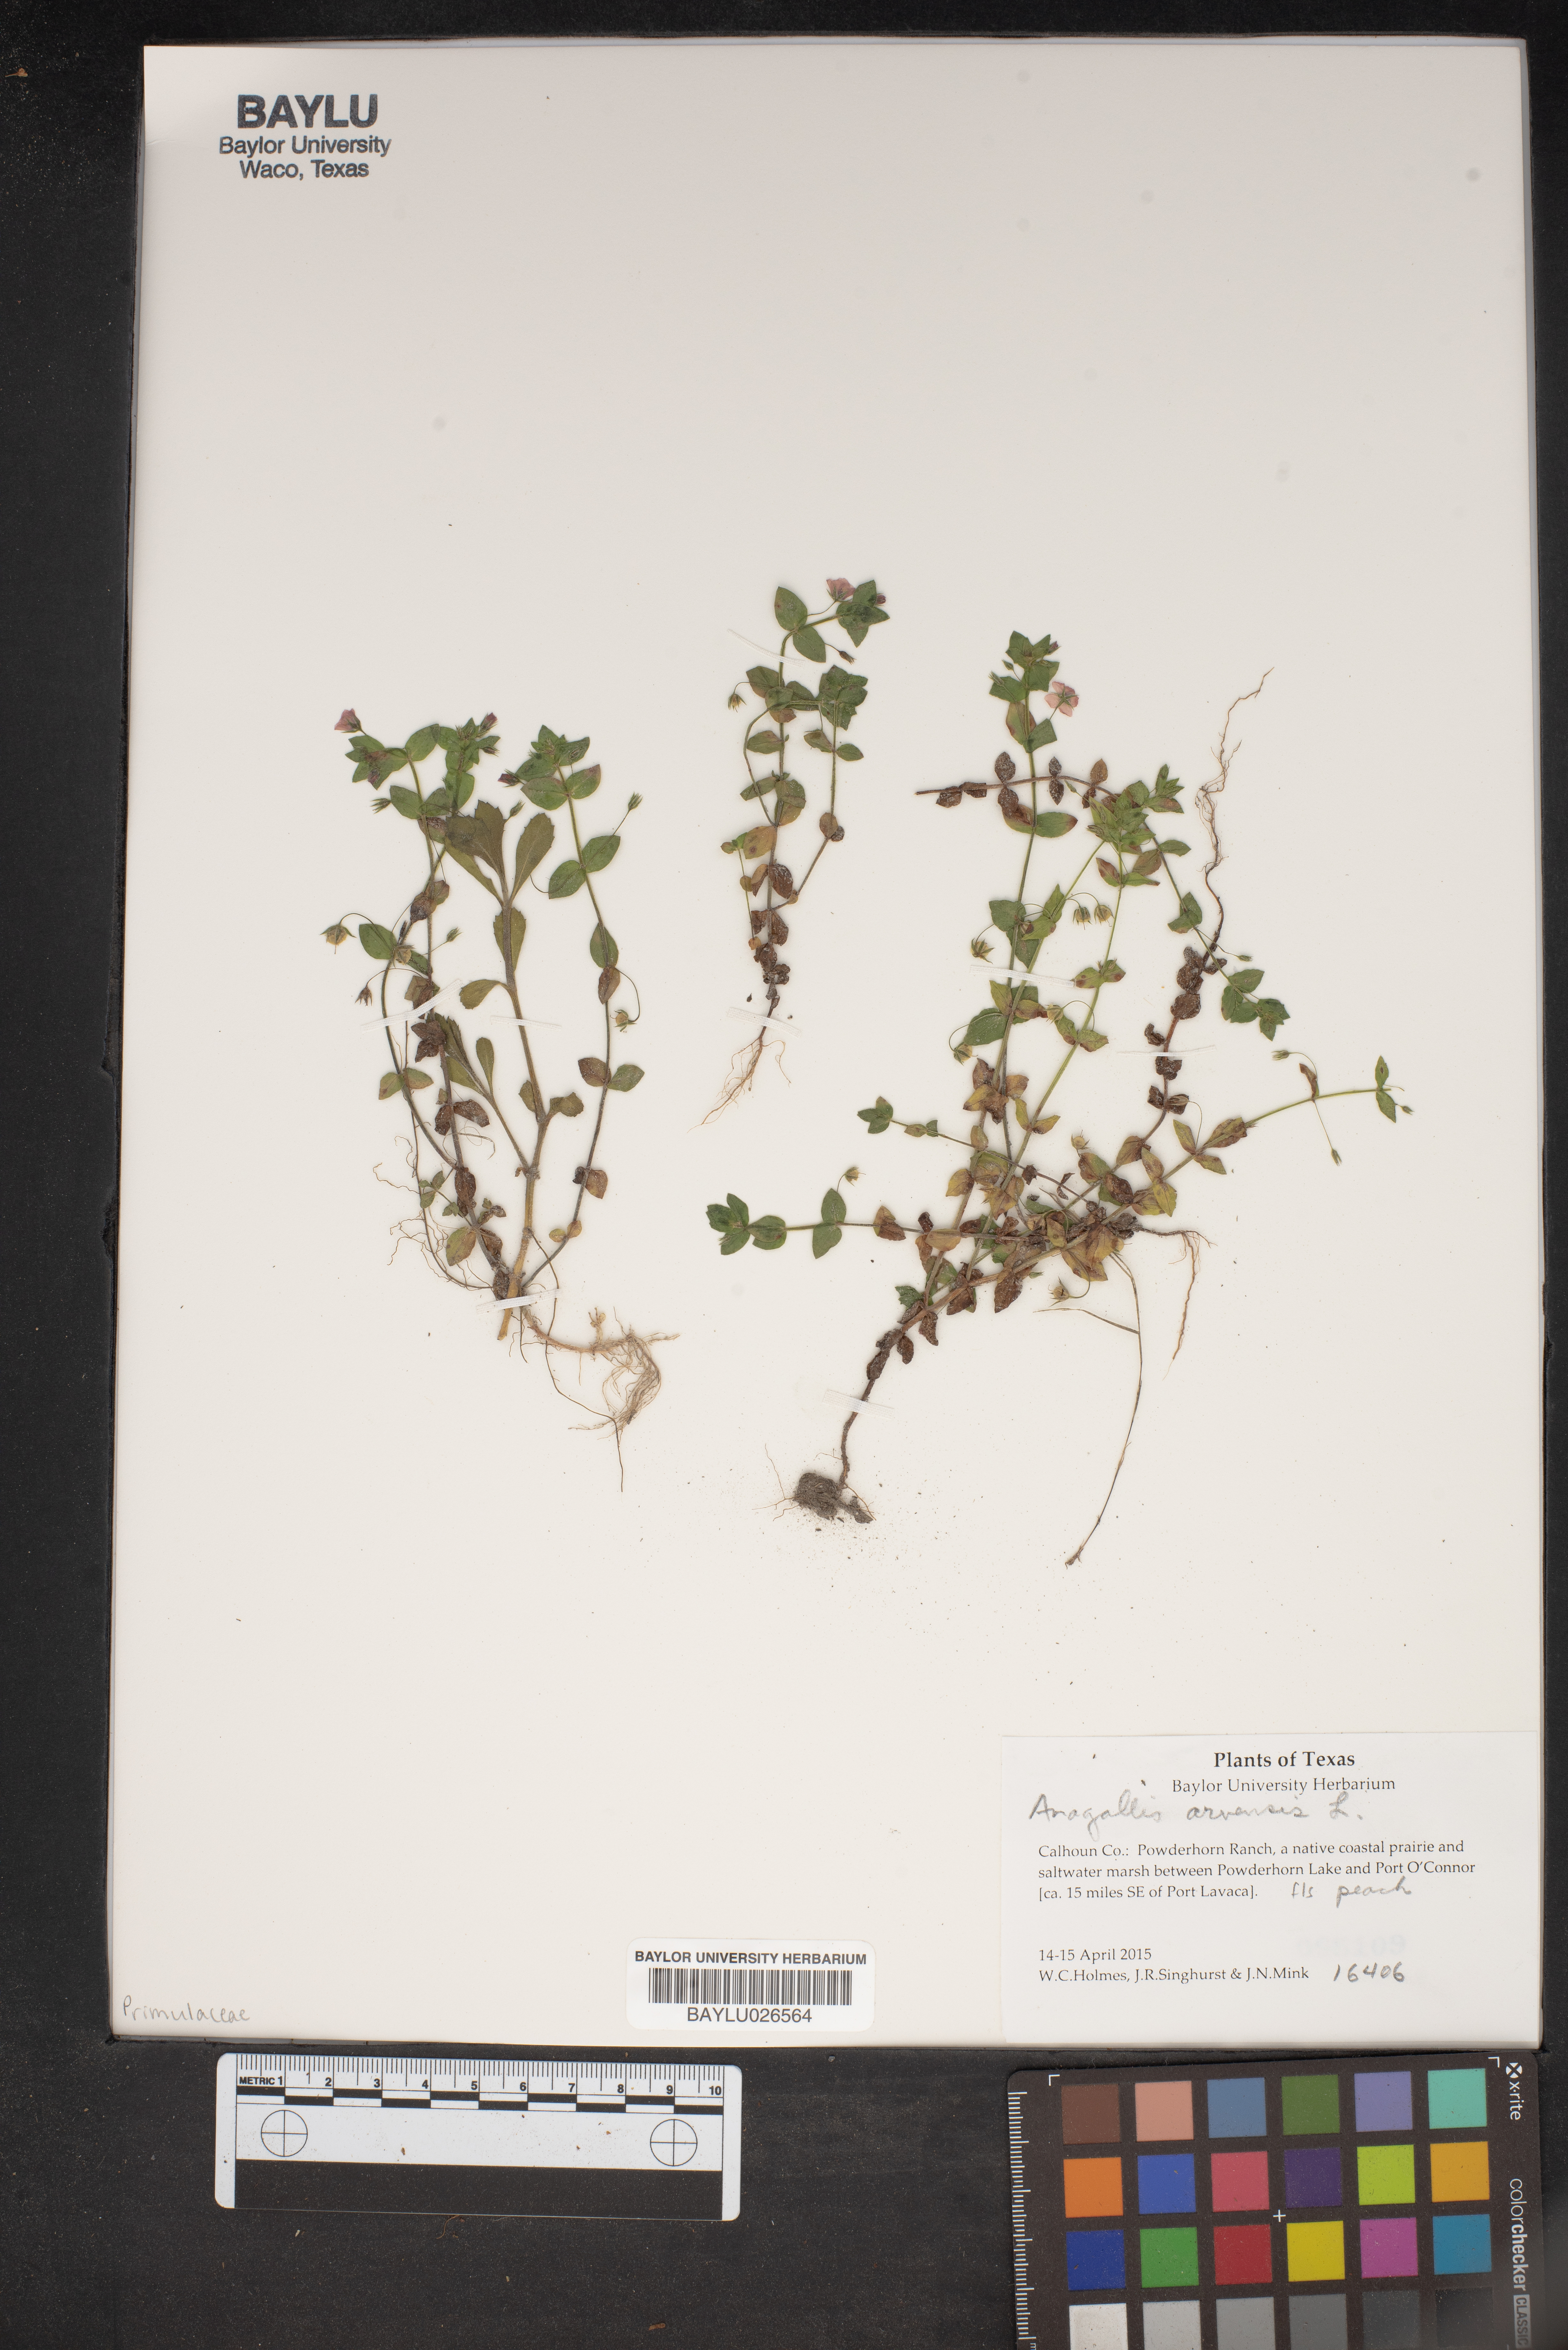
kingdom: Plantae
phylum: Tracheophyta
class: Magnoliopsida
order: Ericales
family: Primulaceae
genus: Lysimachia
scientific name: Lysimachia arvensis
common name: Scarlet pimpernel
